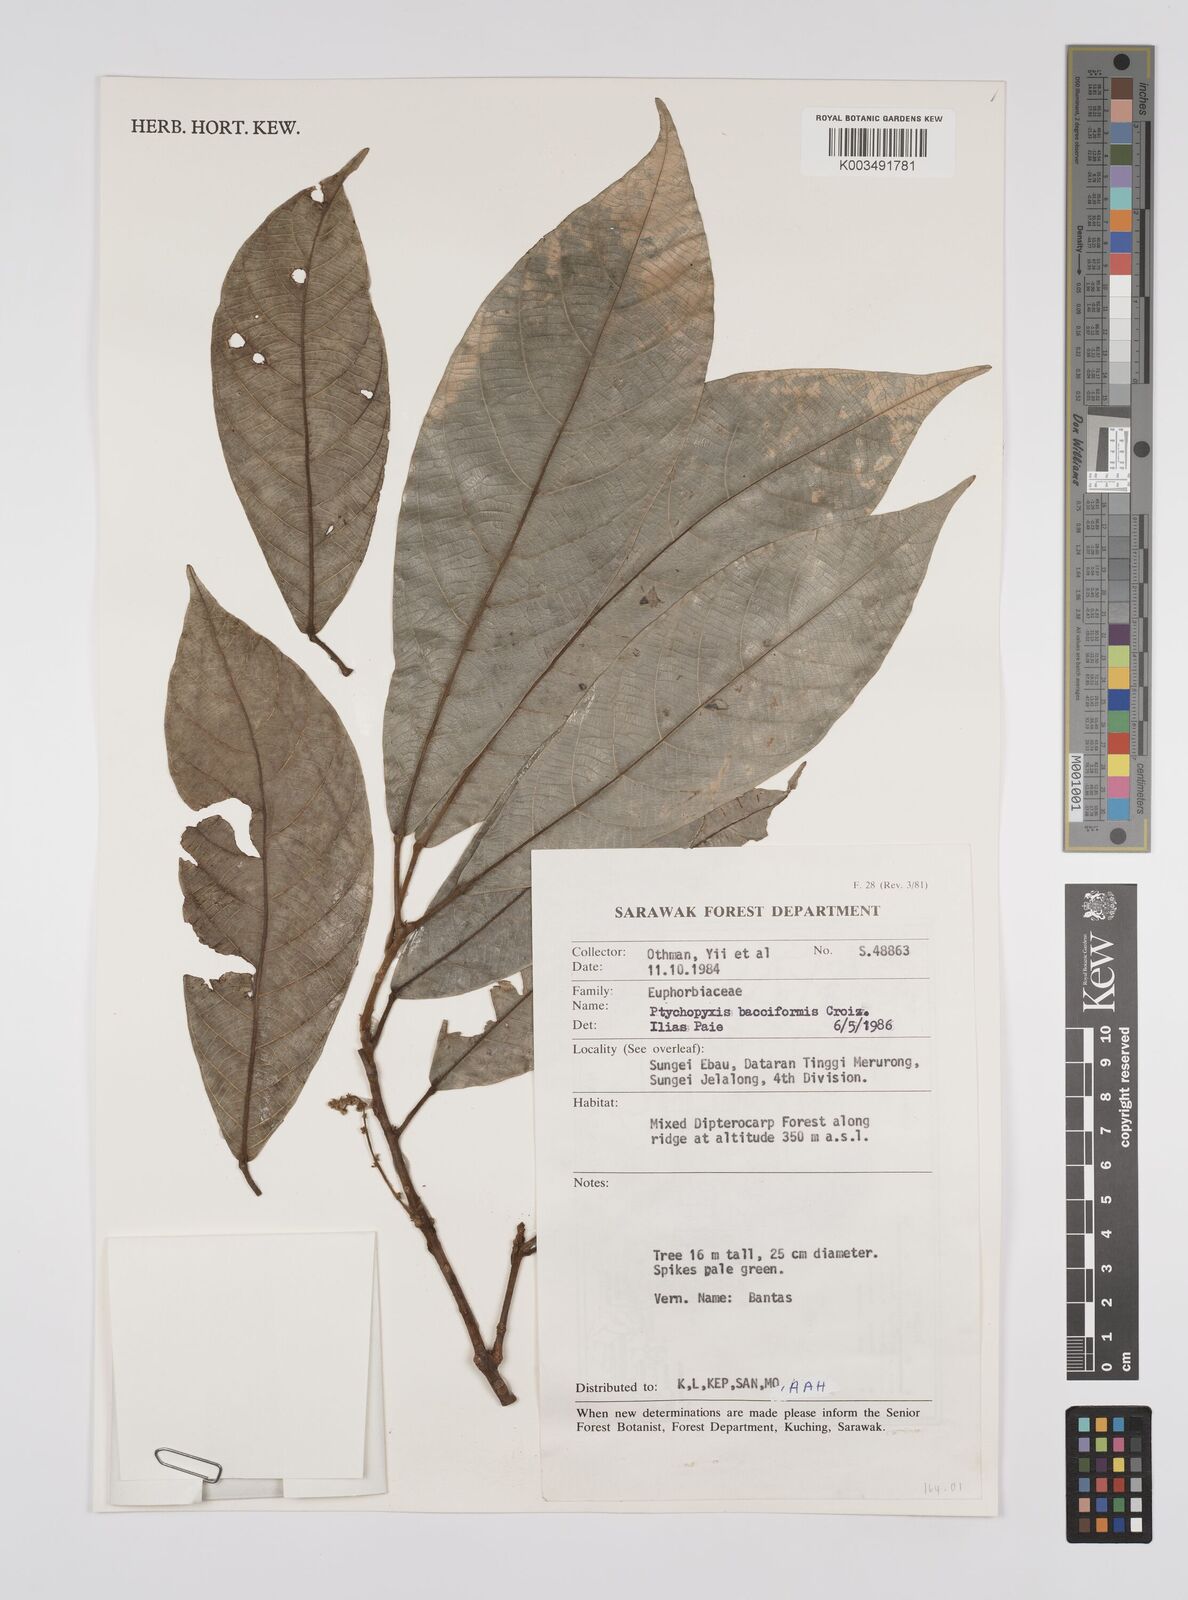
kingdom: Plantae
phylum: Tracheophyta
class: Magnoliopsida
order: Malpighiales
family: Euphorbiaceae
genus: Ptychopyxis
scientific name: Ptychopyxis bacciformis
